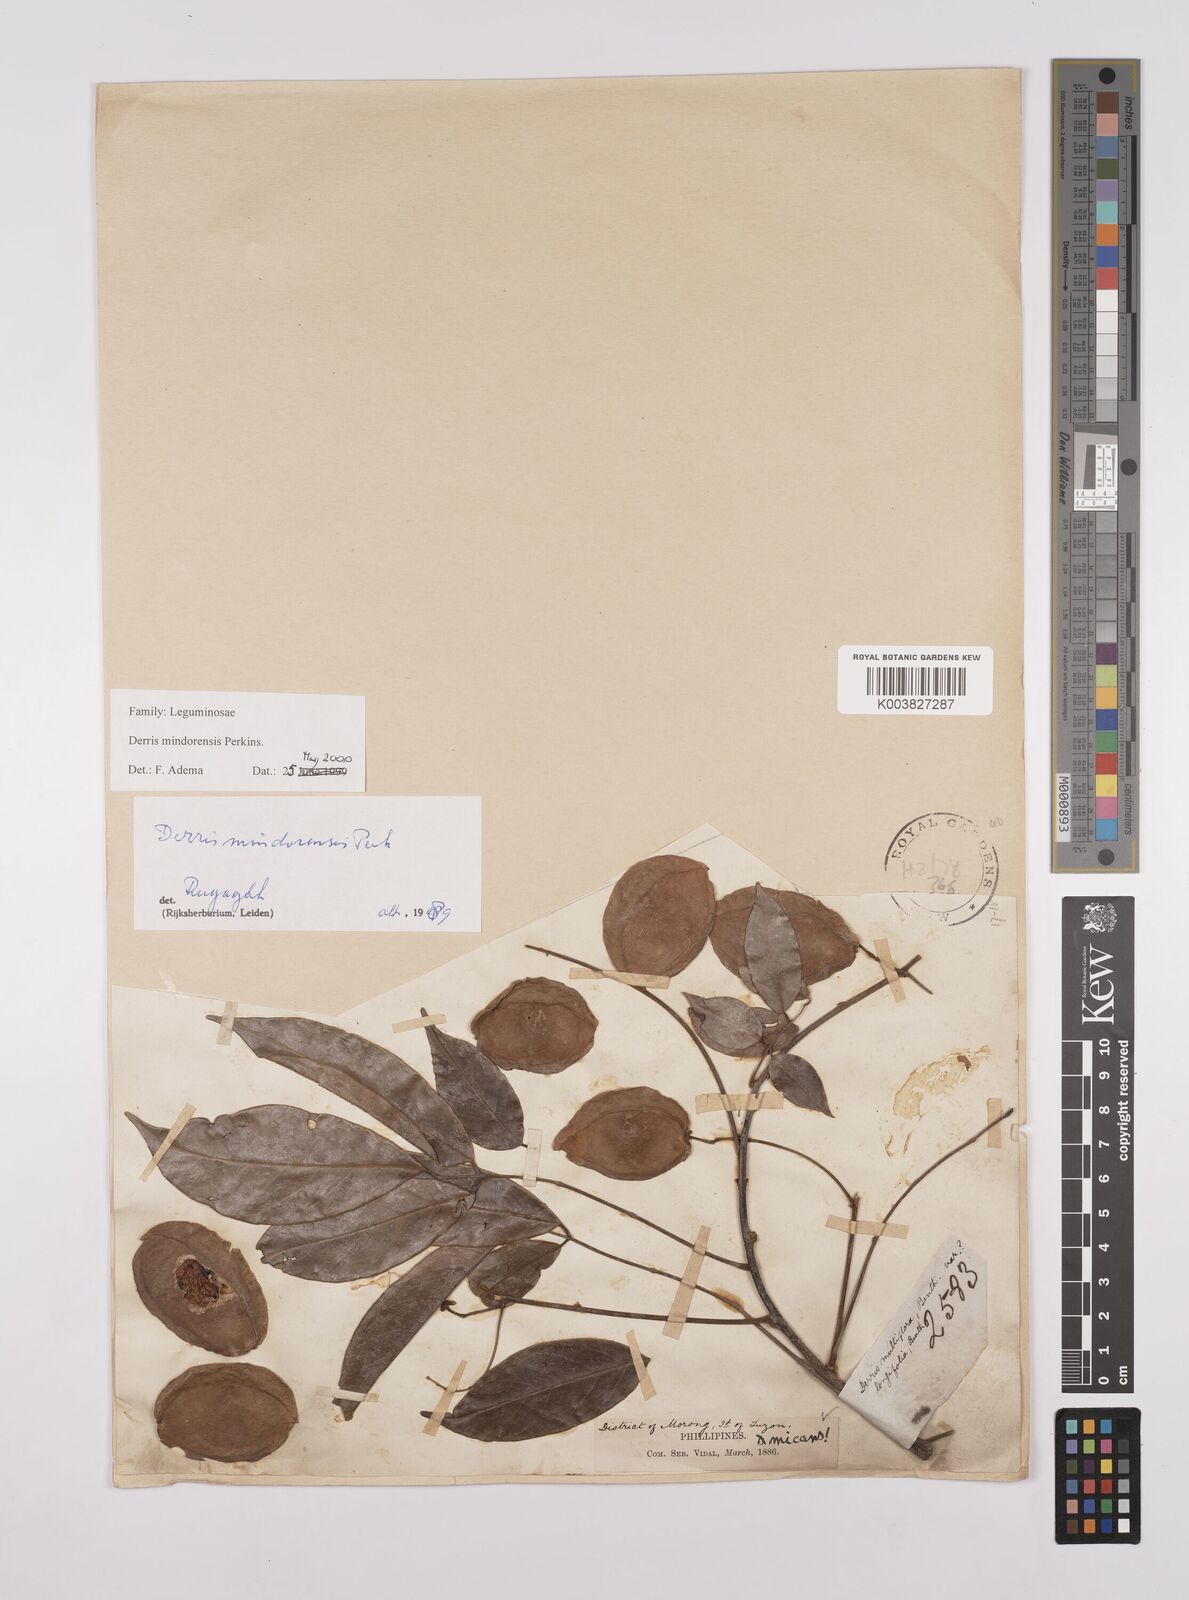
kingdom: Plantae
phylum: Tracheophyta
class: Magnoliopsida
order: Fabales
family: Fabaceae
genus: Derris
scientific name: Derris pubipetala
